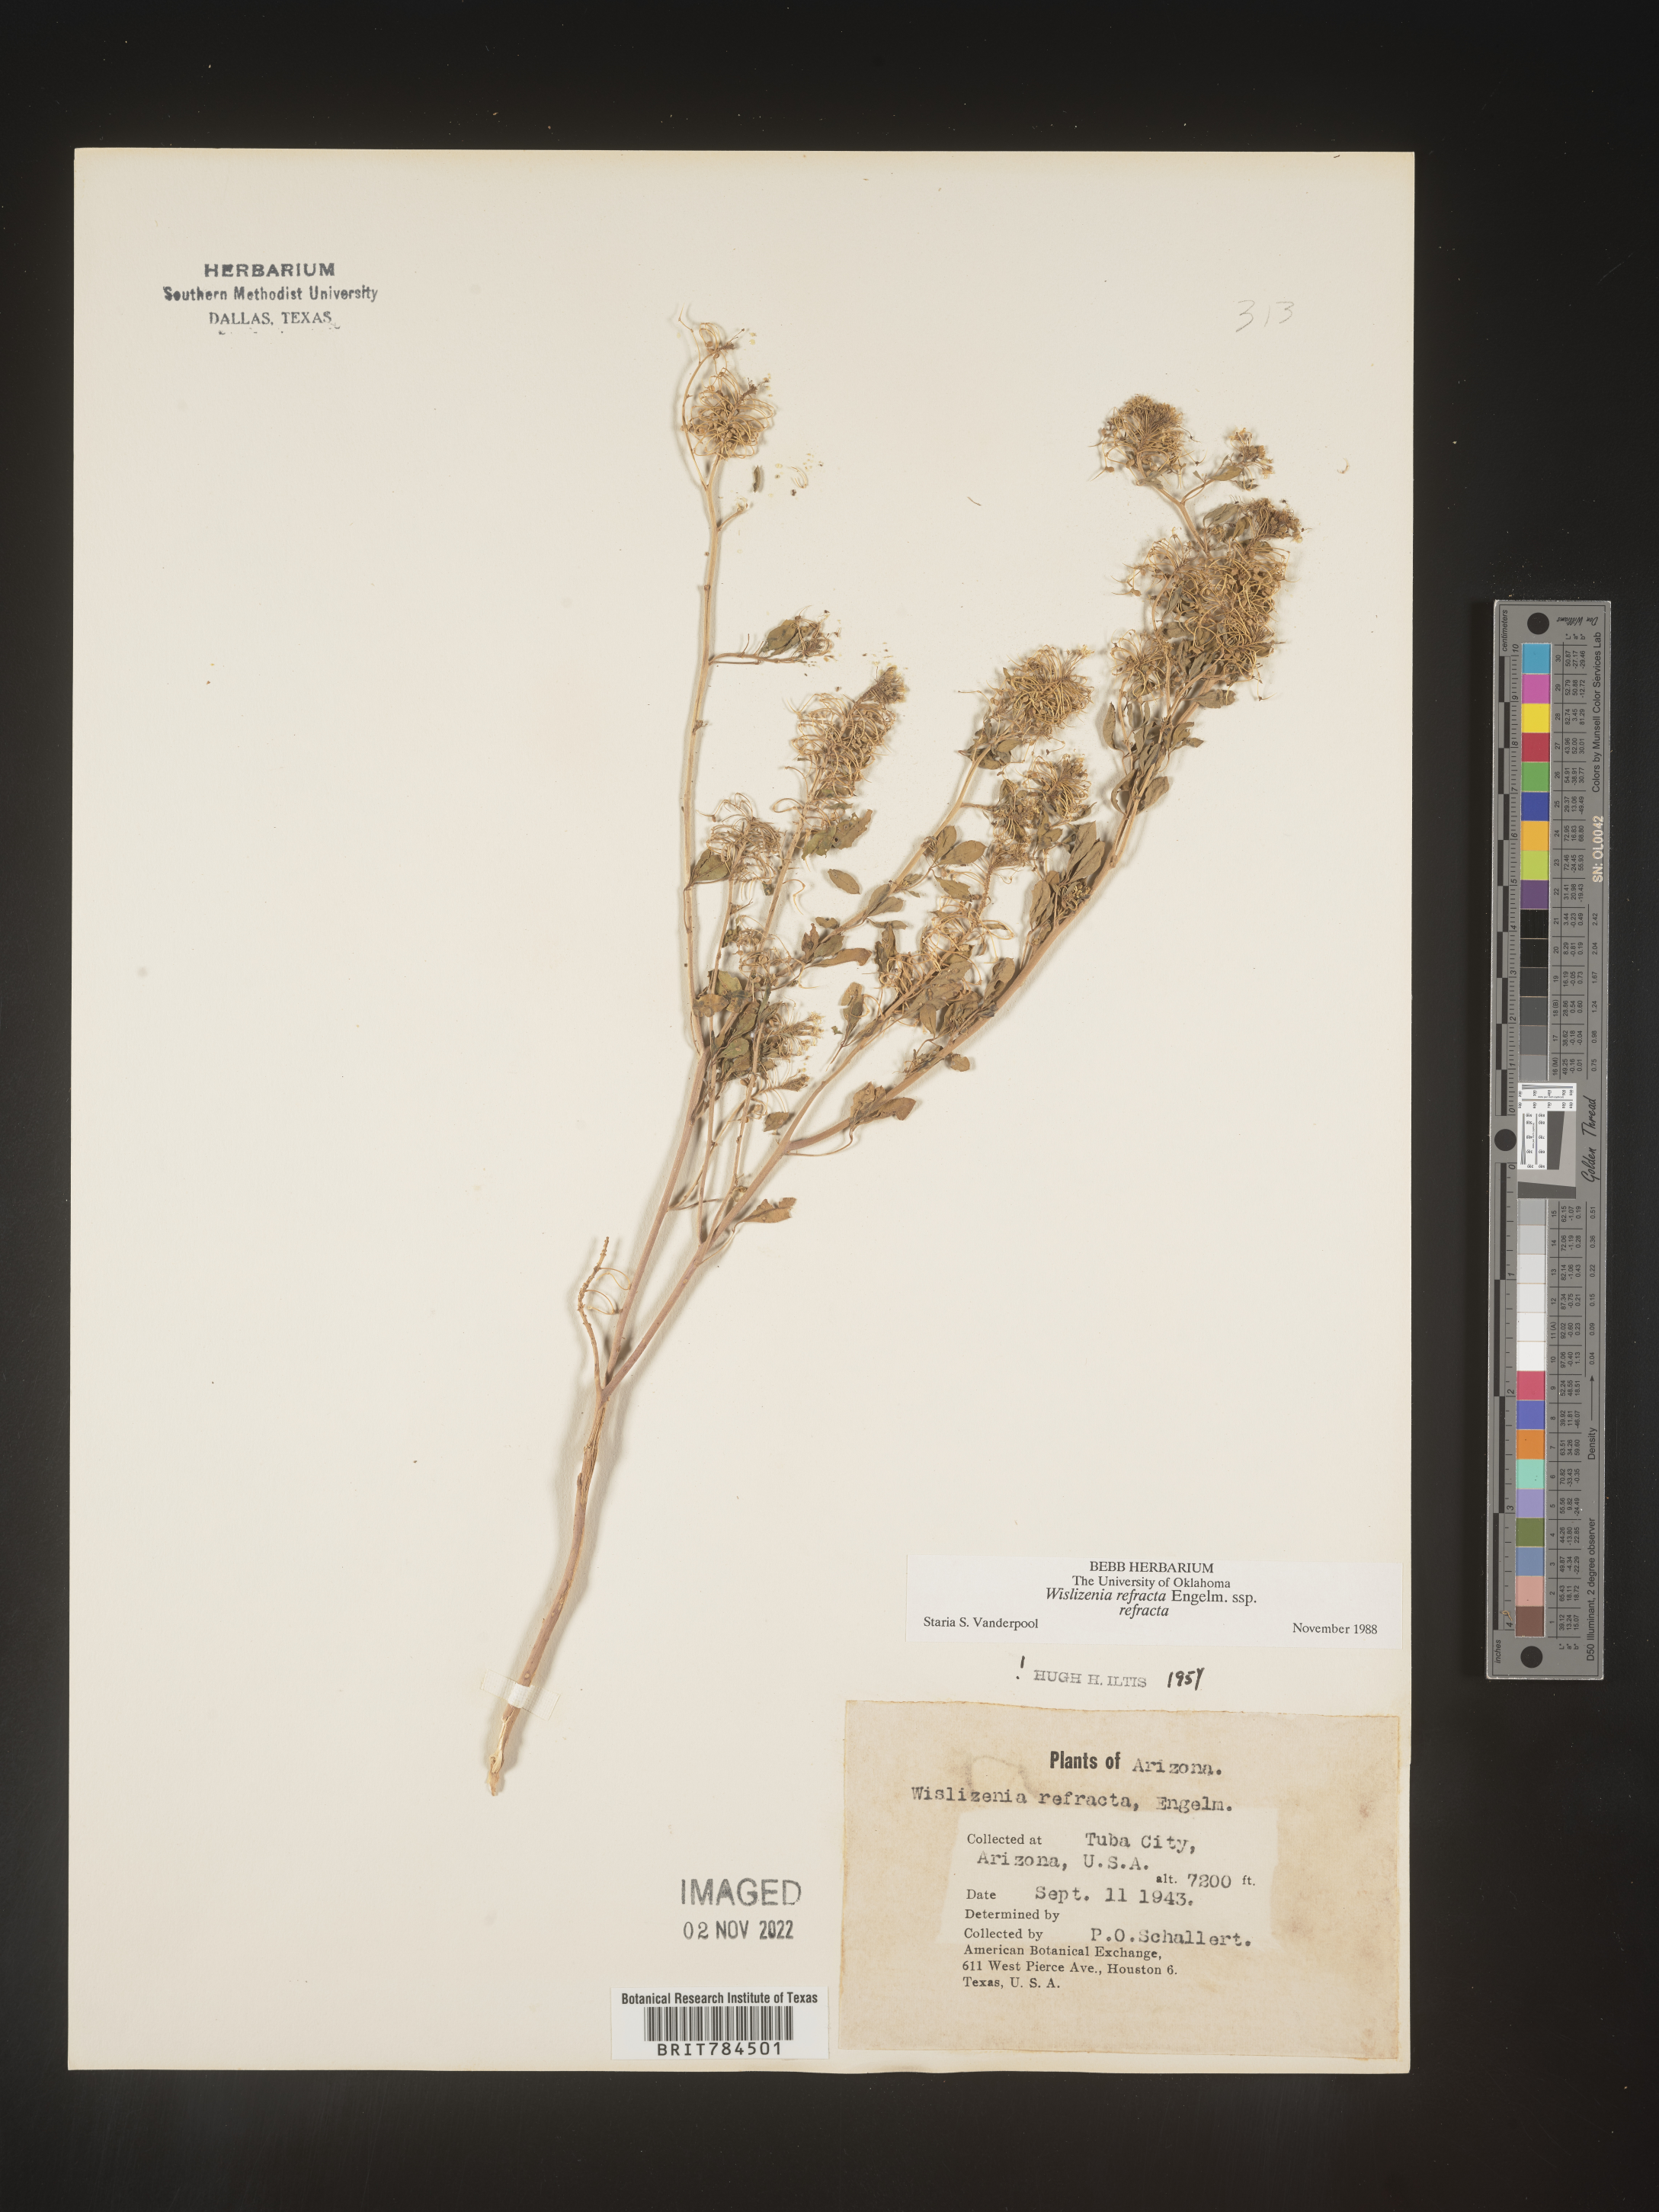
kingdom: Plantae
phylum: Tracheophyta
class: Magnoliopsida
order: Brassicales
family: Cleomaceae
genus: Cleomella
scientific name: Cleomella refracta
